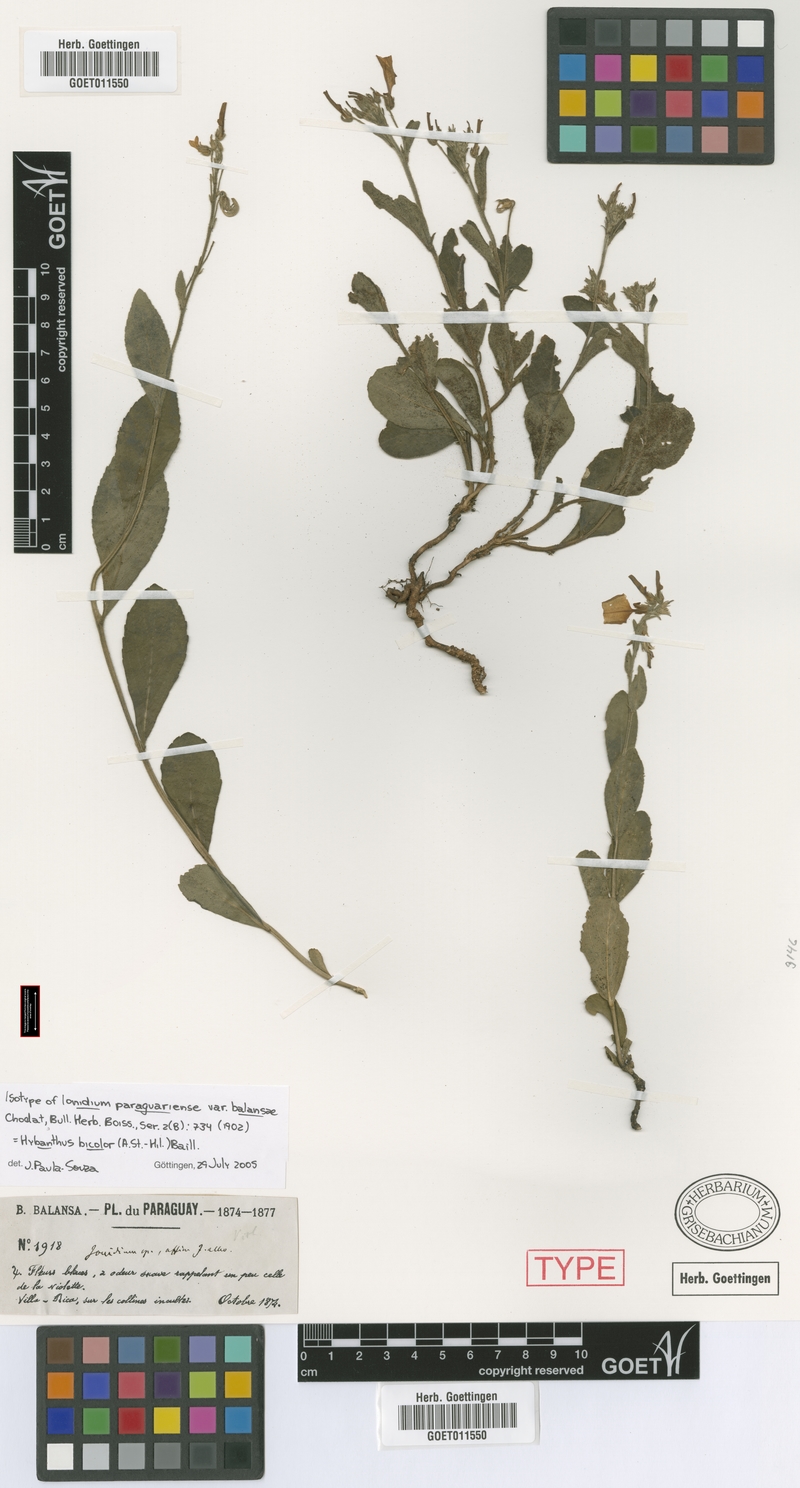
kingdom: Plantae
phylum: Tracheophyta
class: Magnoliopsida
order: Malpighiales
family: Violaceae
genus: Pombalia
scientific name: Pombalia bicolor
